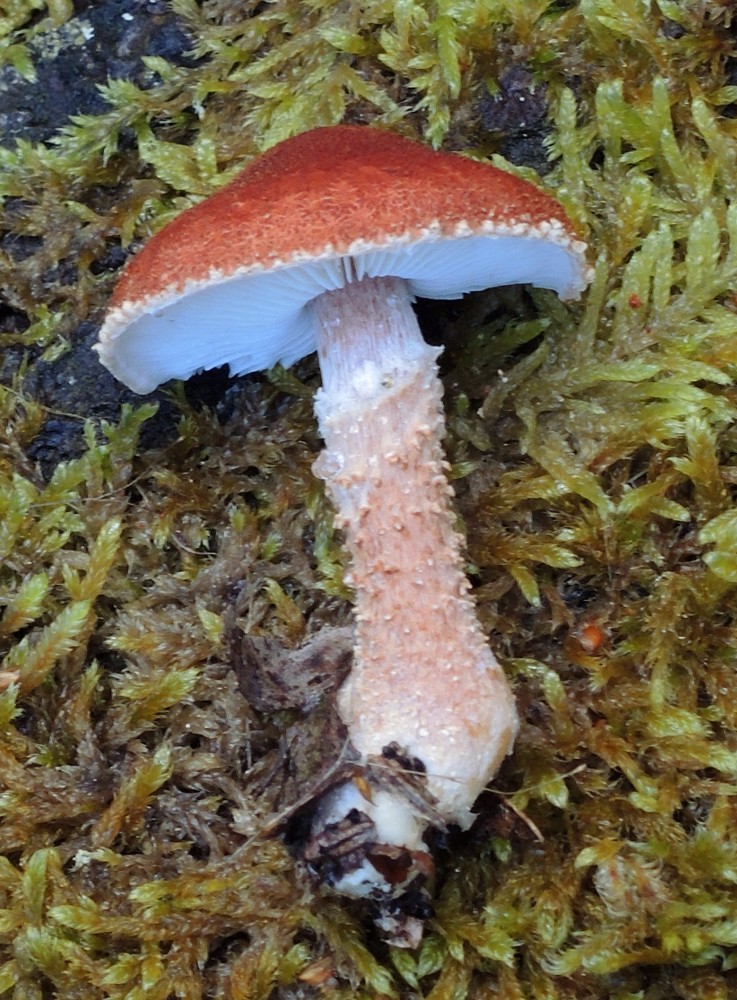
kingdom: Fungi
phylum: Basidiomycota
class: Agaricomycetes
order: Agaricales
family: Agaricaceae
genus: Cystodermella
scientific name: Cystodermella granulosa
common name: kliddet grynhat
